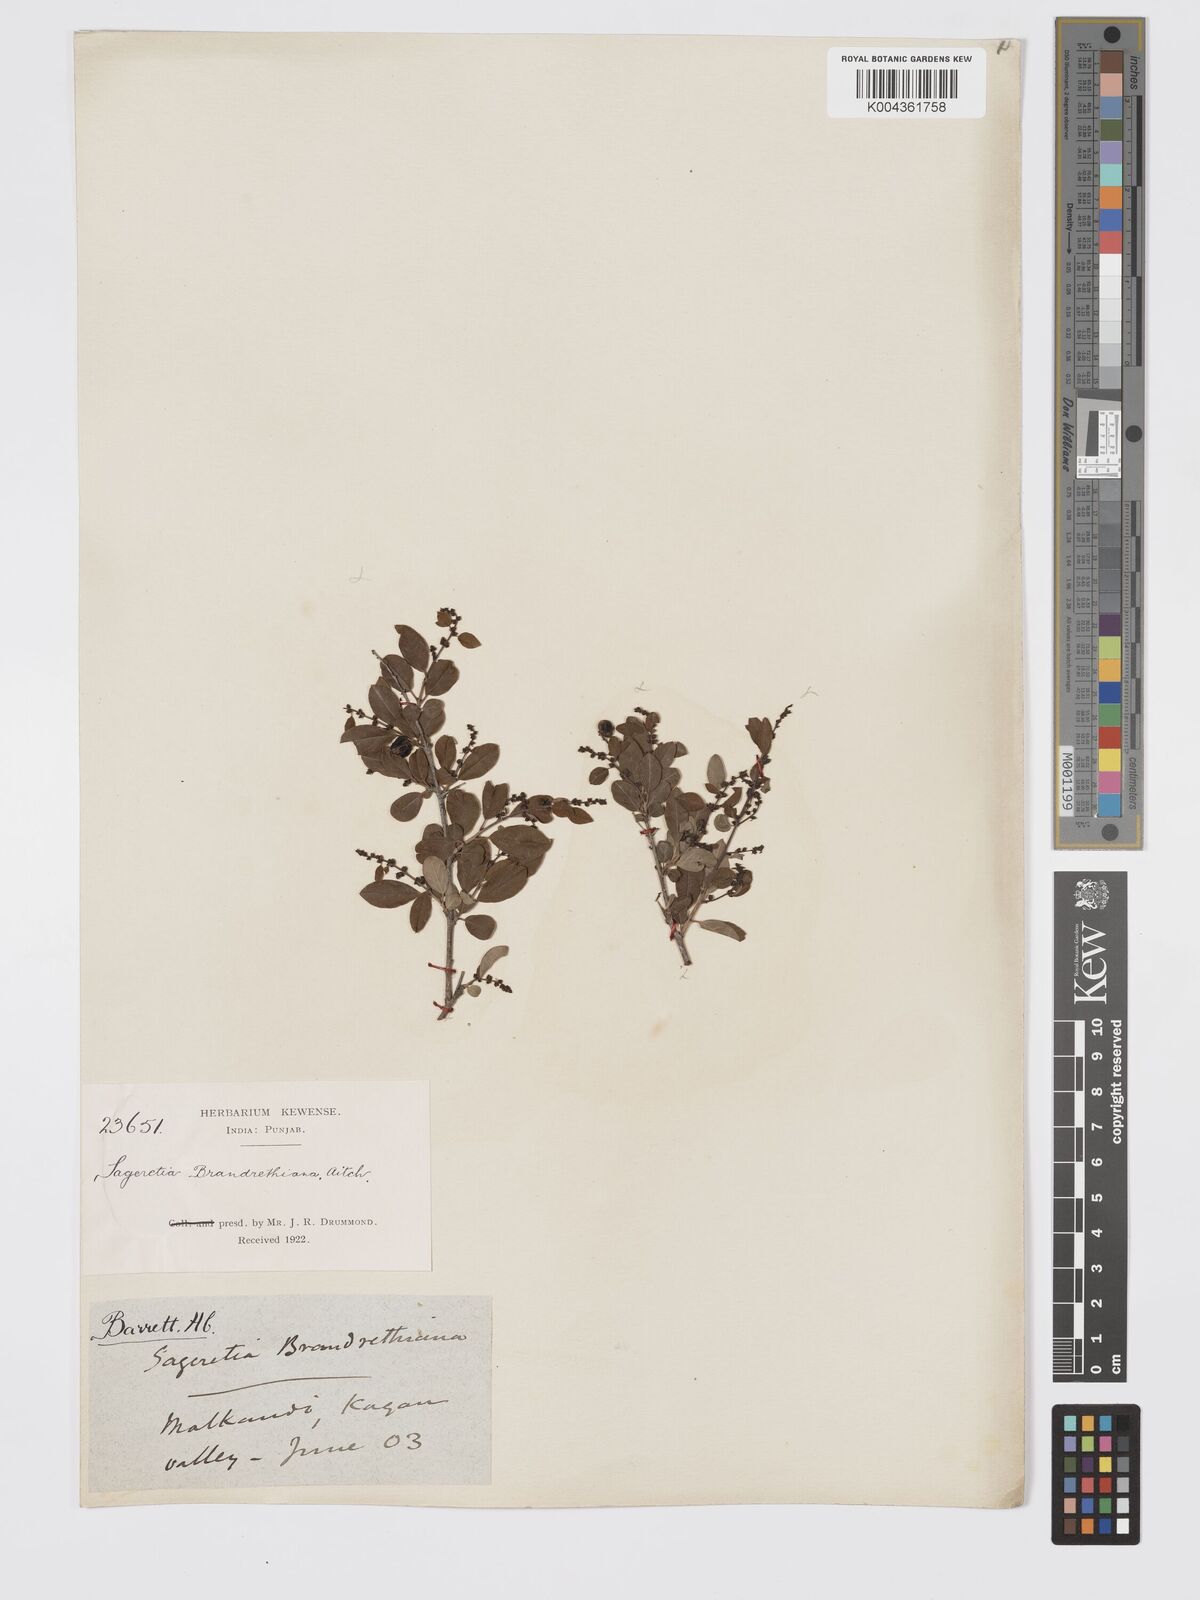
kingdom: Plantae
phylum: Tracheophyta
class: Magnoliopsida
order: Rosales
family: Rhamnaceae
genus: Sageretia
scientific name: Sageretia brandrethiana
